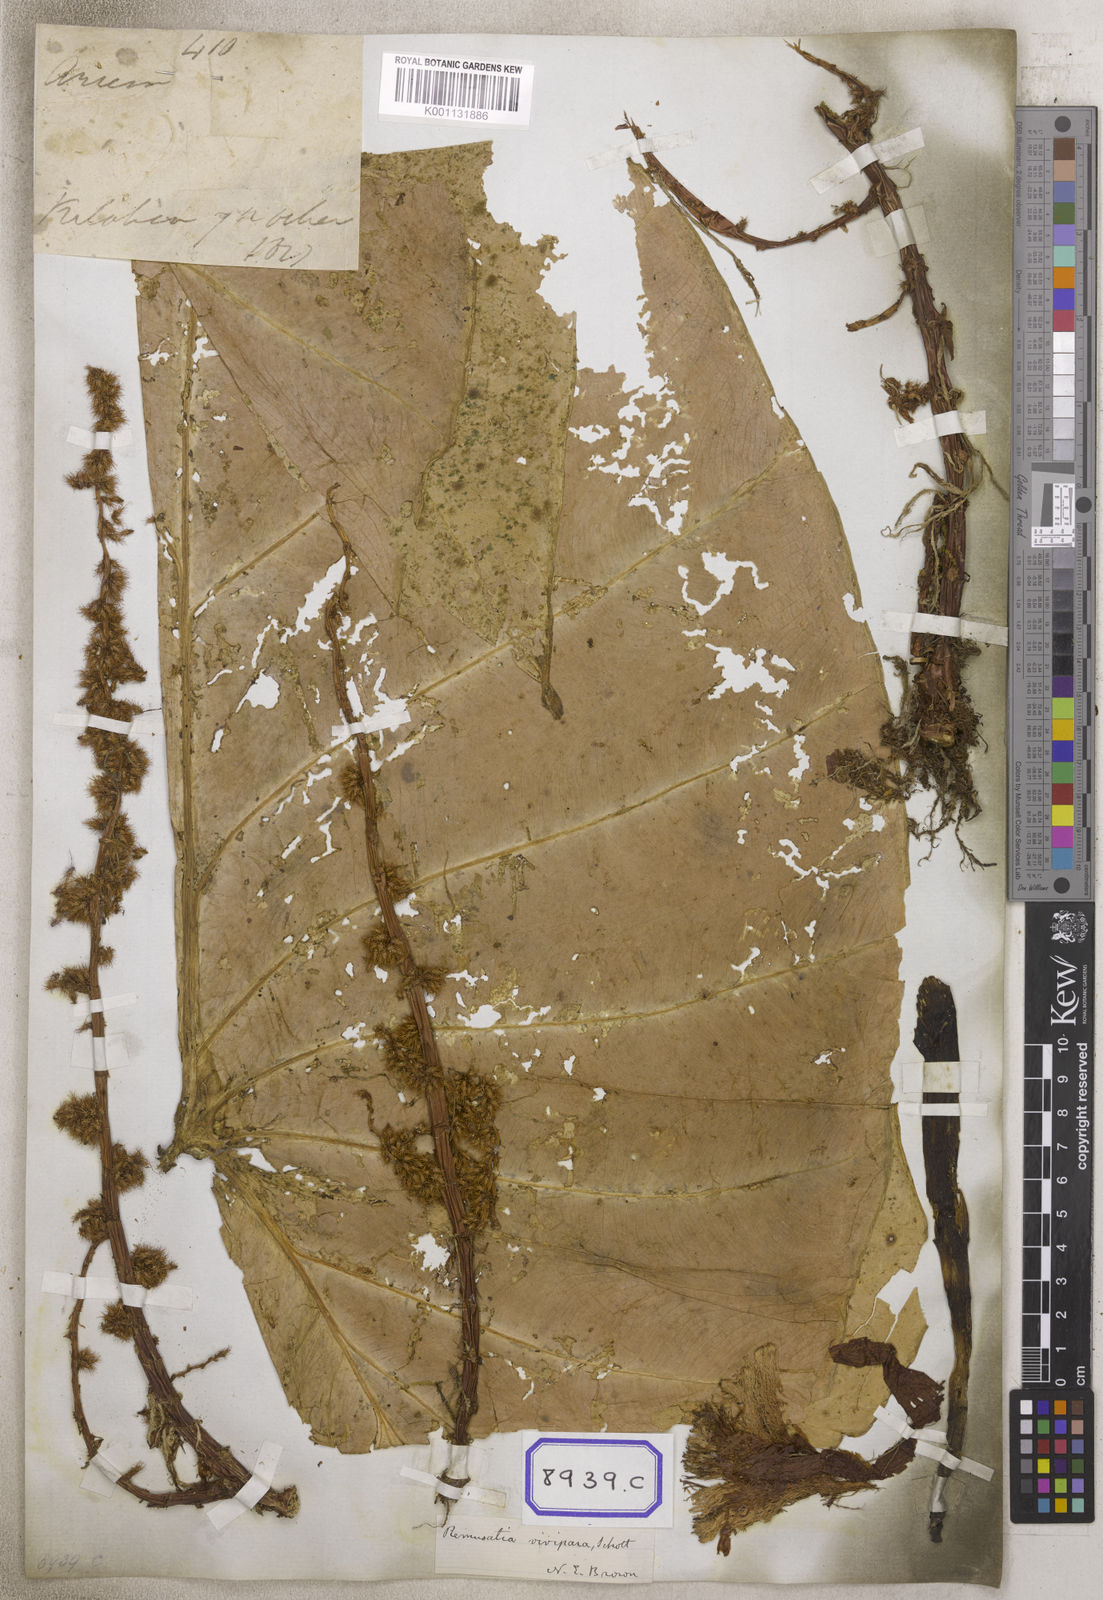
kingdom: Plantae
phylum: Tracheophyta
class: Liliopsida
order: Alismatales
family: Araceae
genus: Remusatia
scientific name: Remusatia vivipara
